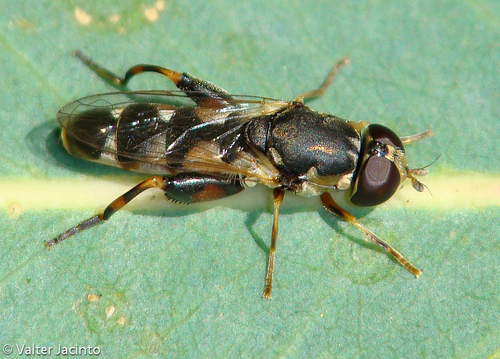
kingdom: Animalia
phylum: Arthropoda
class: Insecta
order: Diptera
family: Syrphidae
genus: Syritta
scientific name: Syritta pipiens
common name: Hover fly
